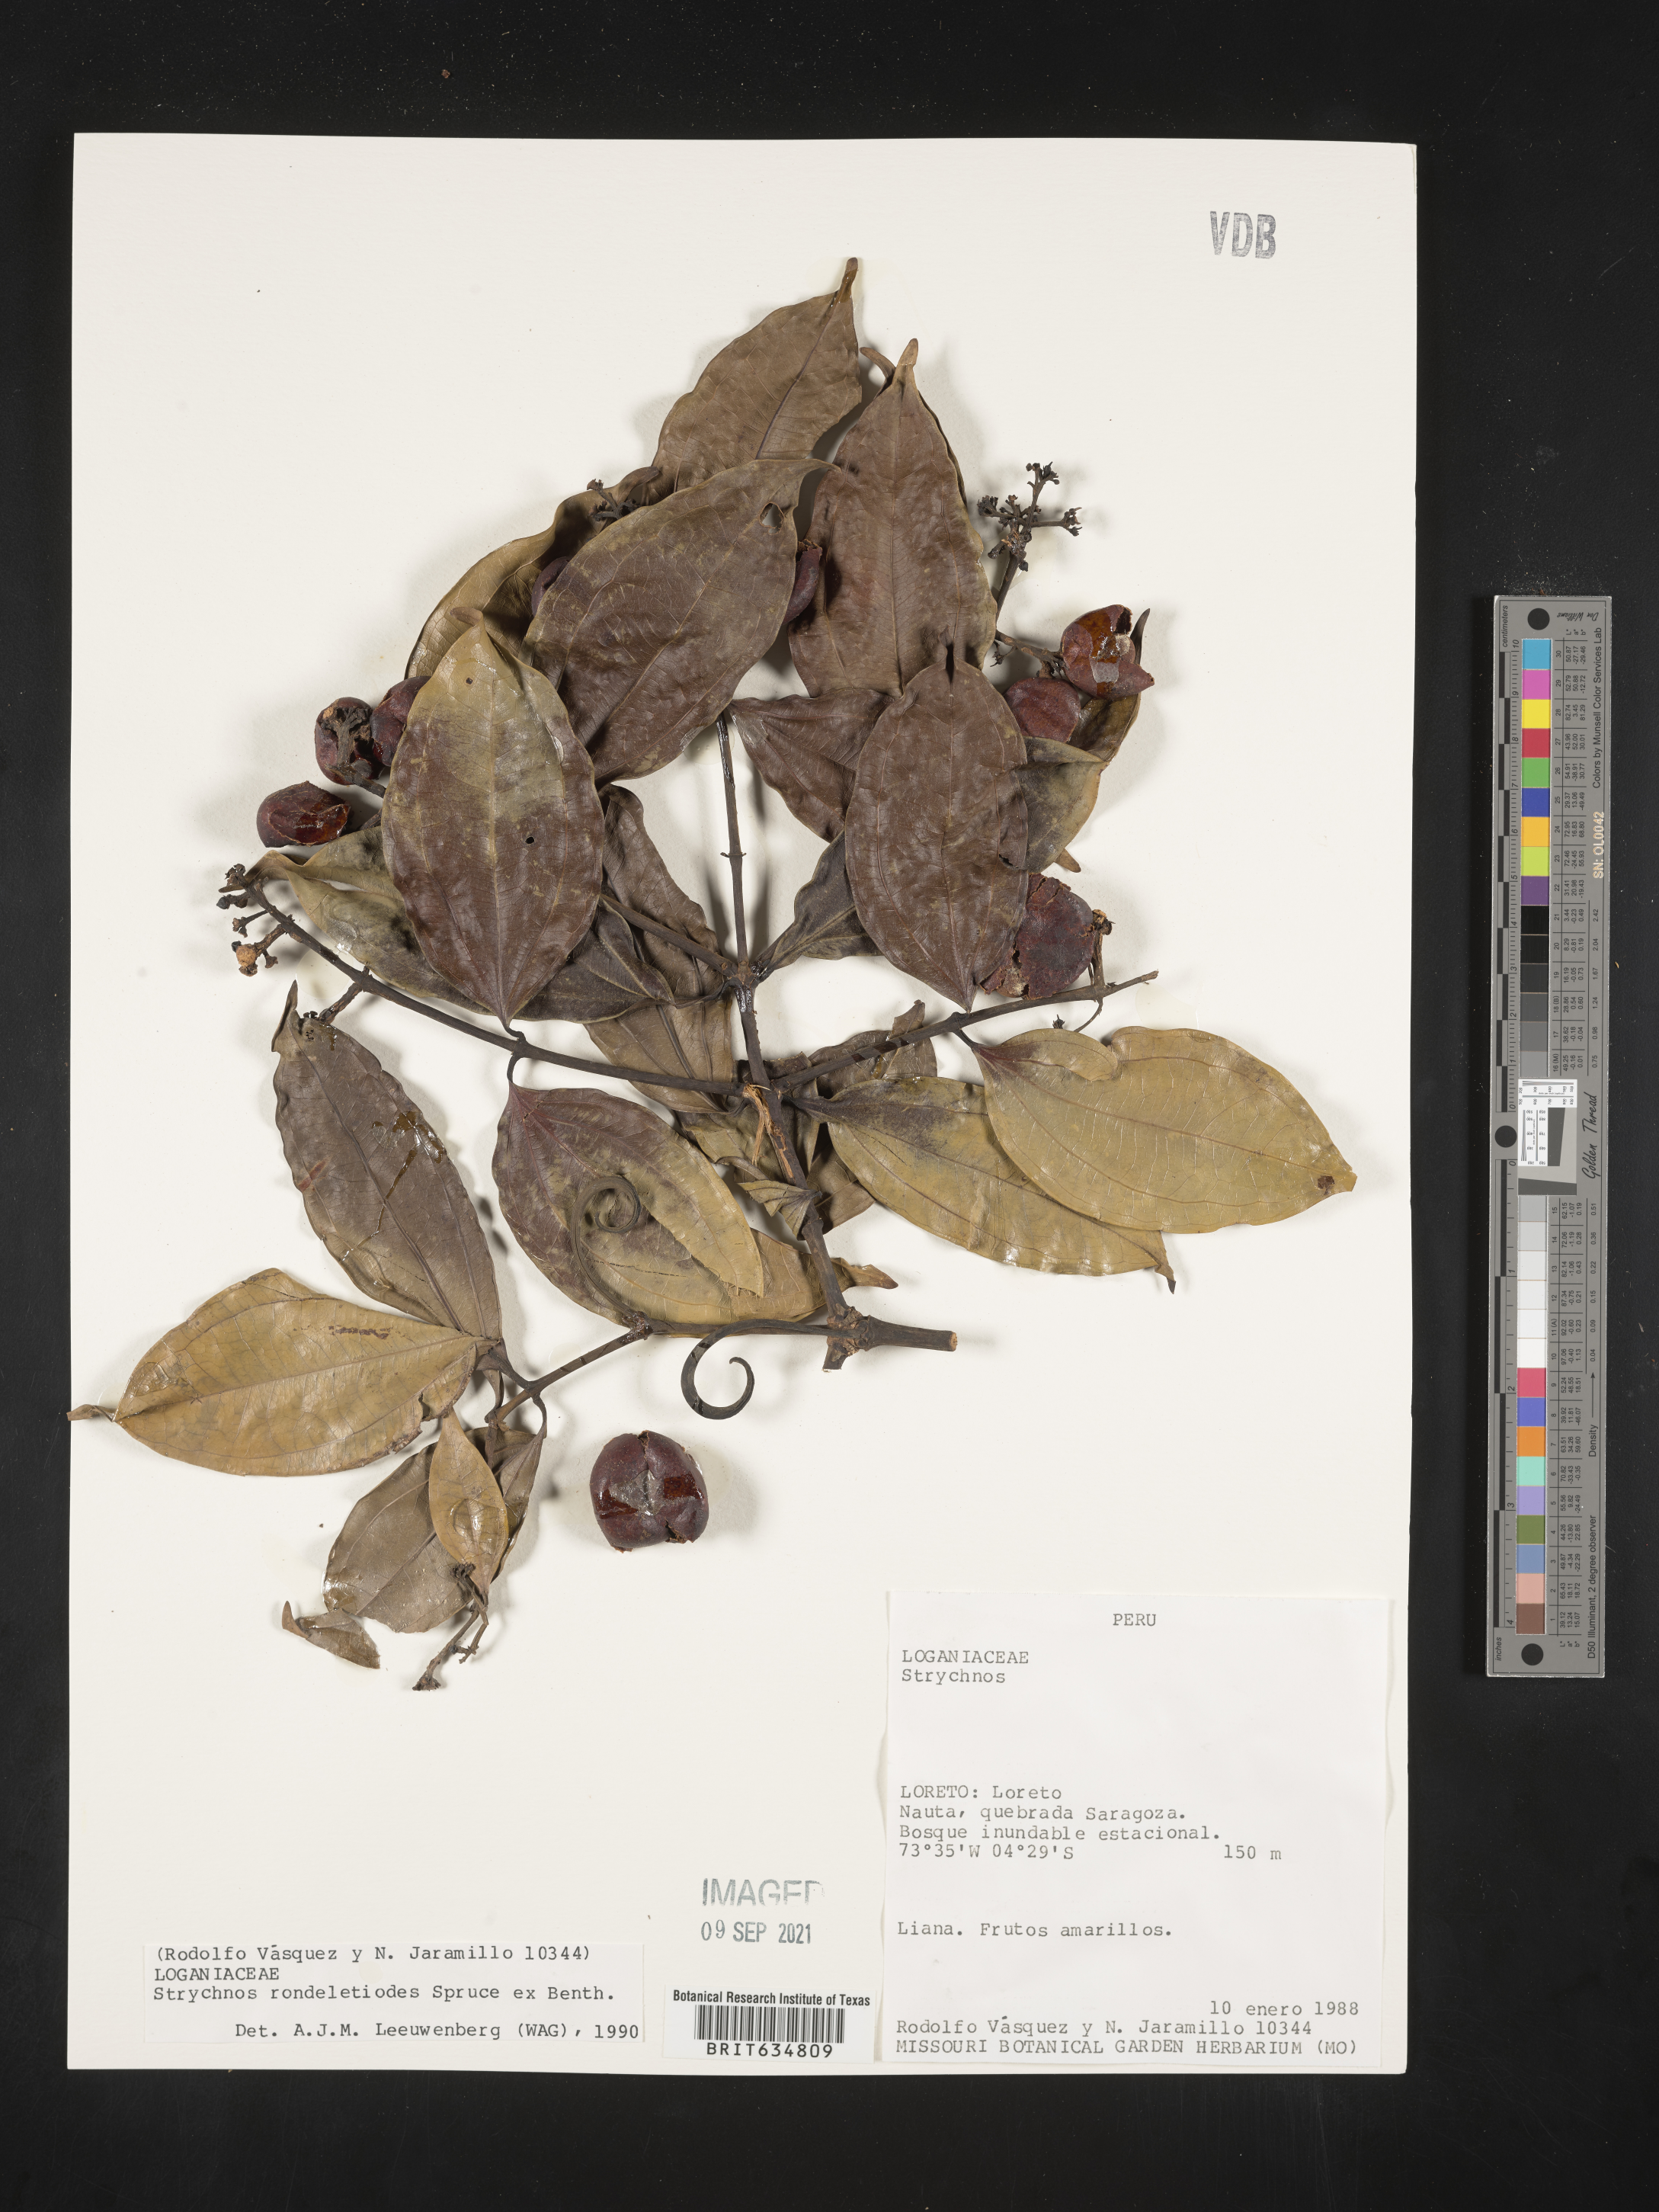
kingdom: Plantae
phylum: Tracheophyta
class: Magnoliopsida
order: Gentianales
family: Loganiaceae
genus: Strychnos
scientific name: Strychnos
